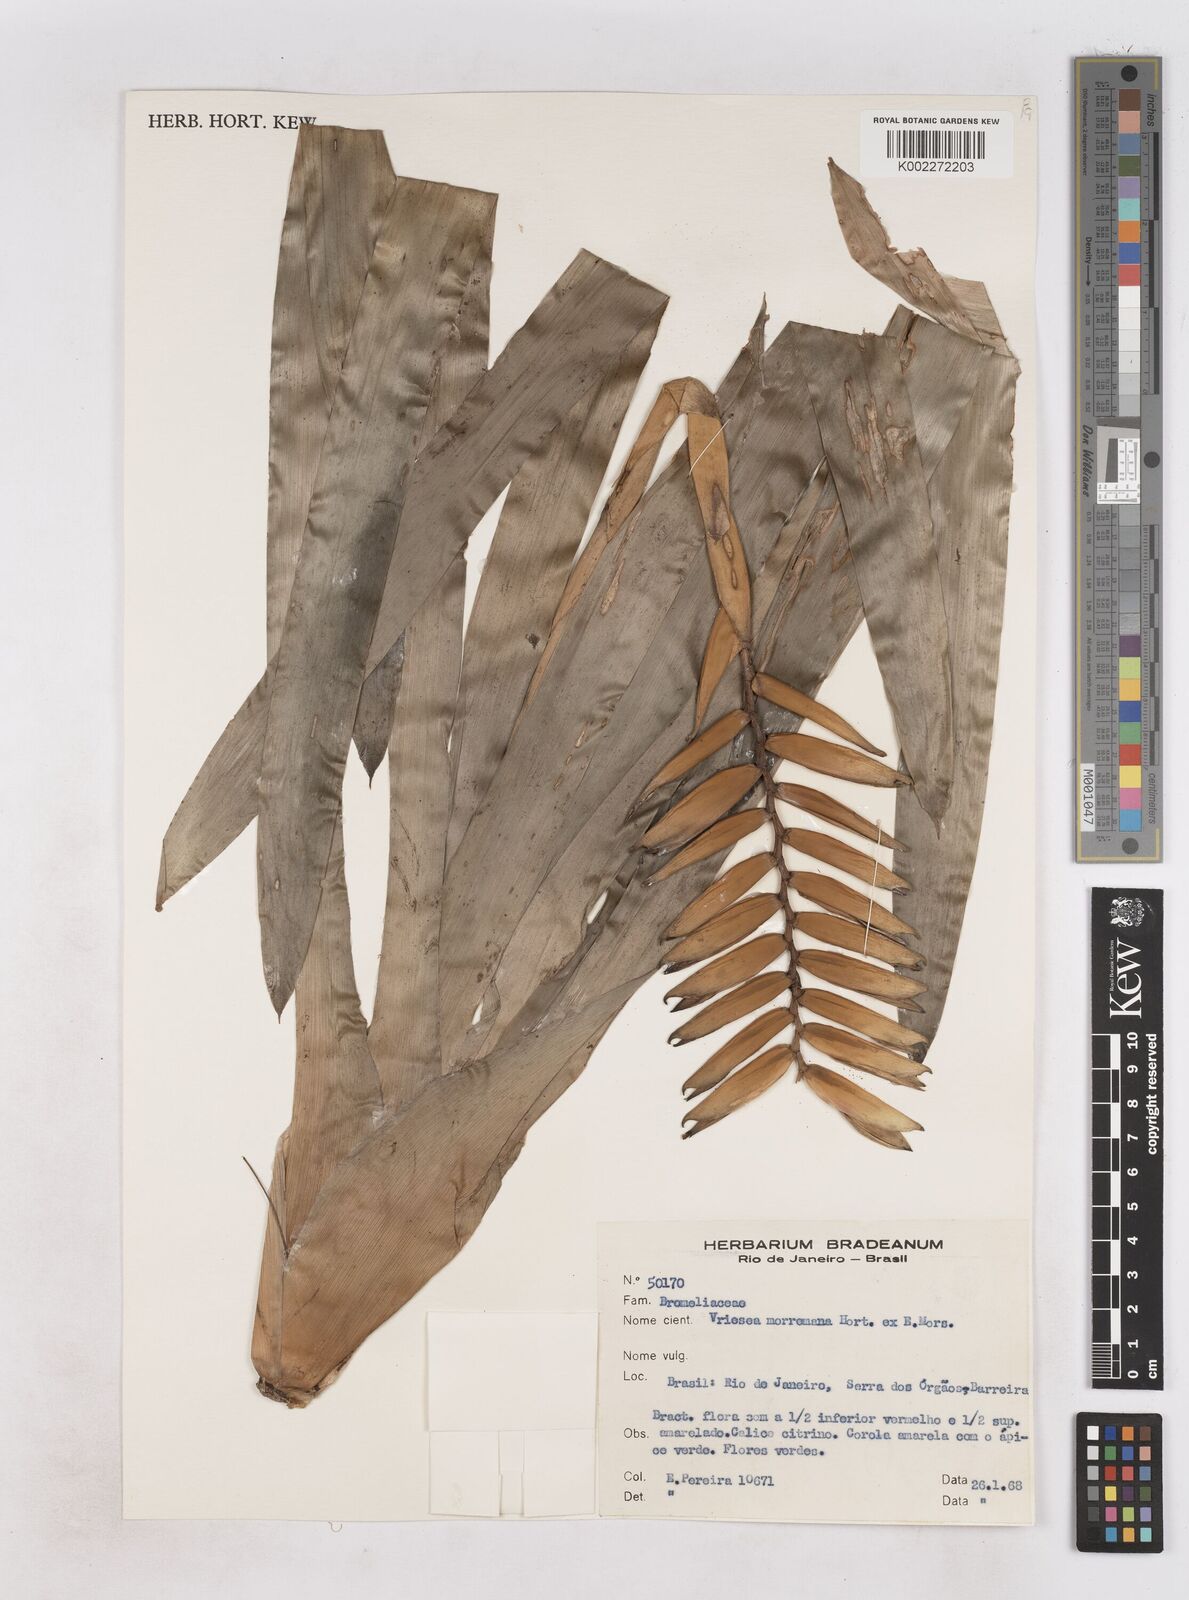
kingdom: Plantae
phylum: Tracheophyta
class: Liliopsida
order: Poales
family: Bromeliaceae
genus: Vriesea
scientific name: Vriesea morreni
